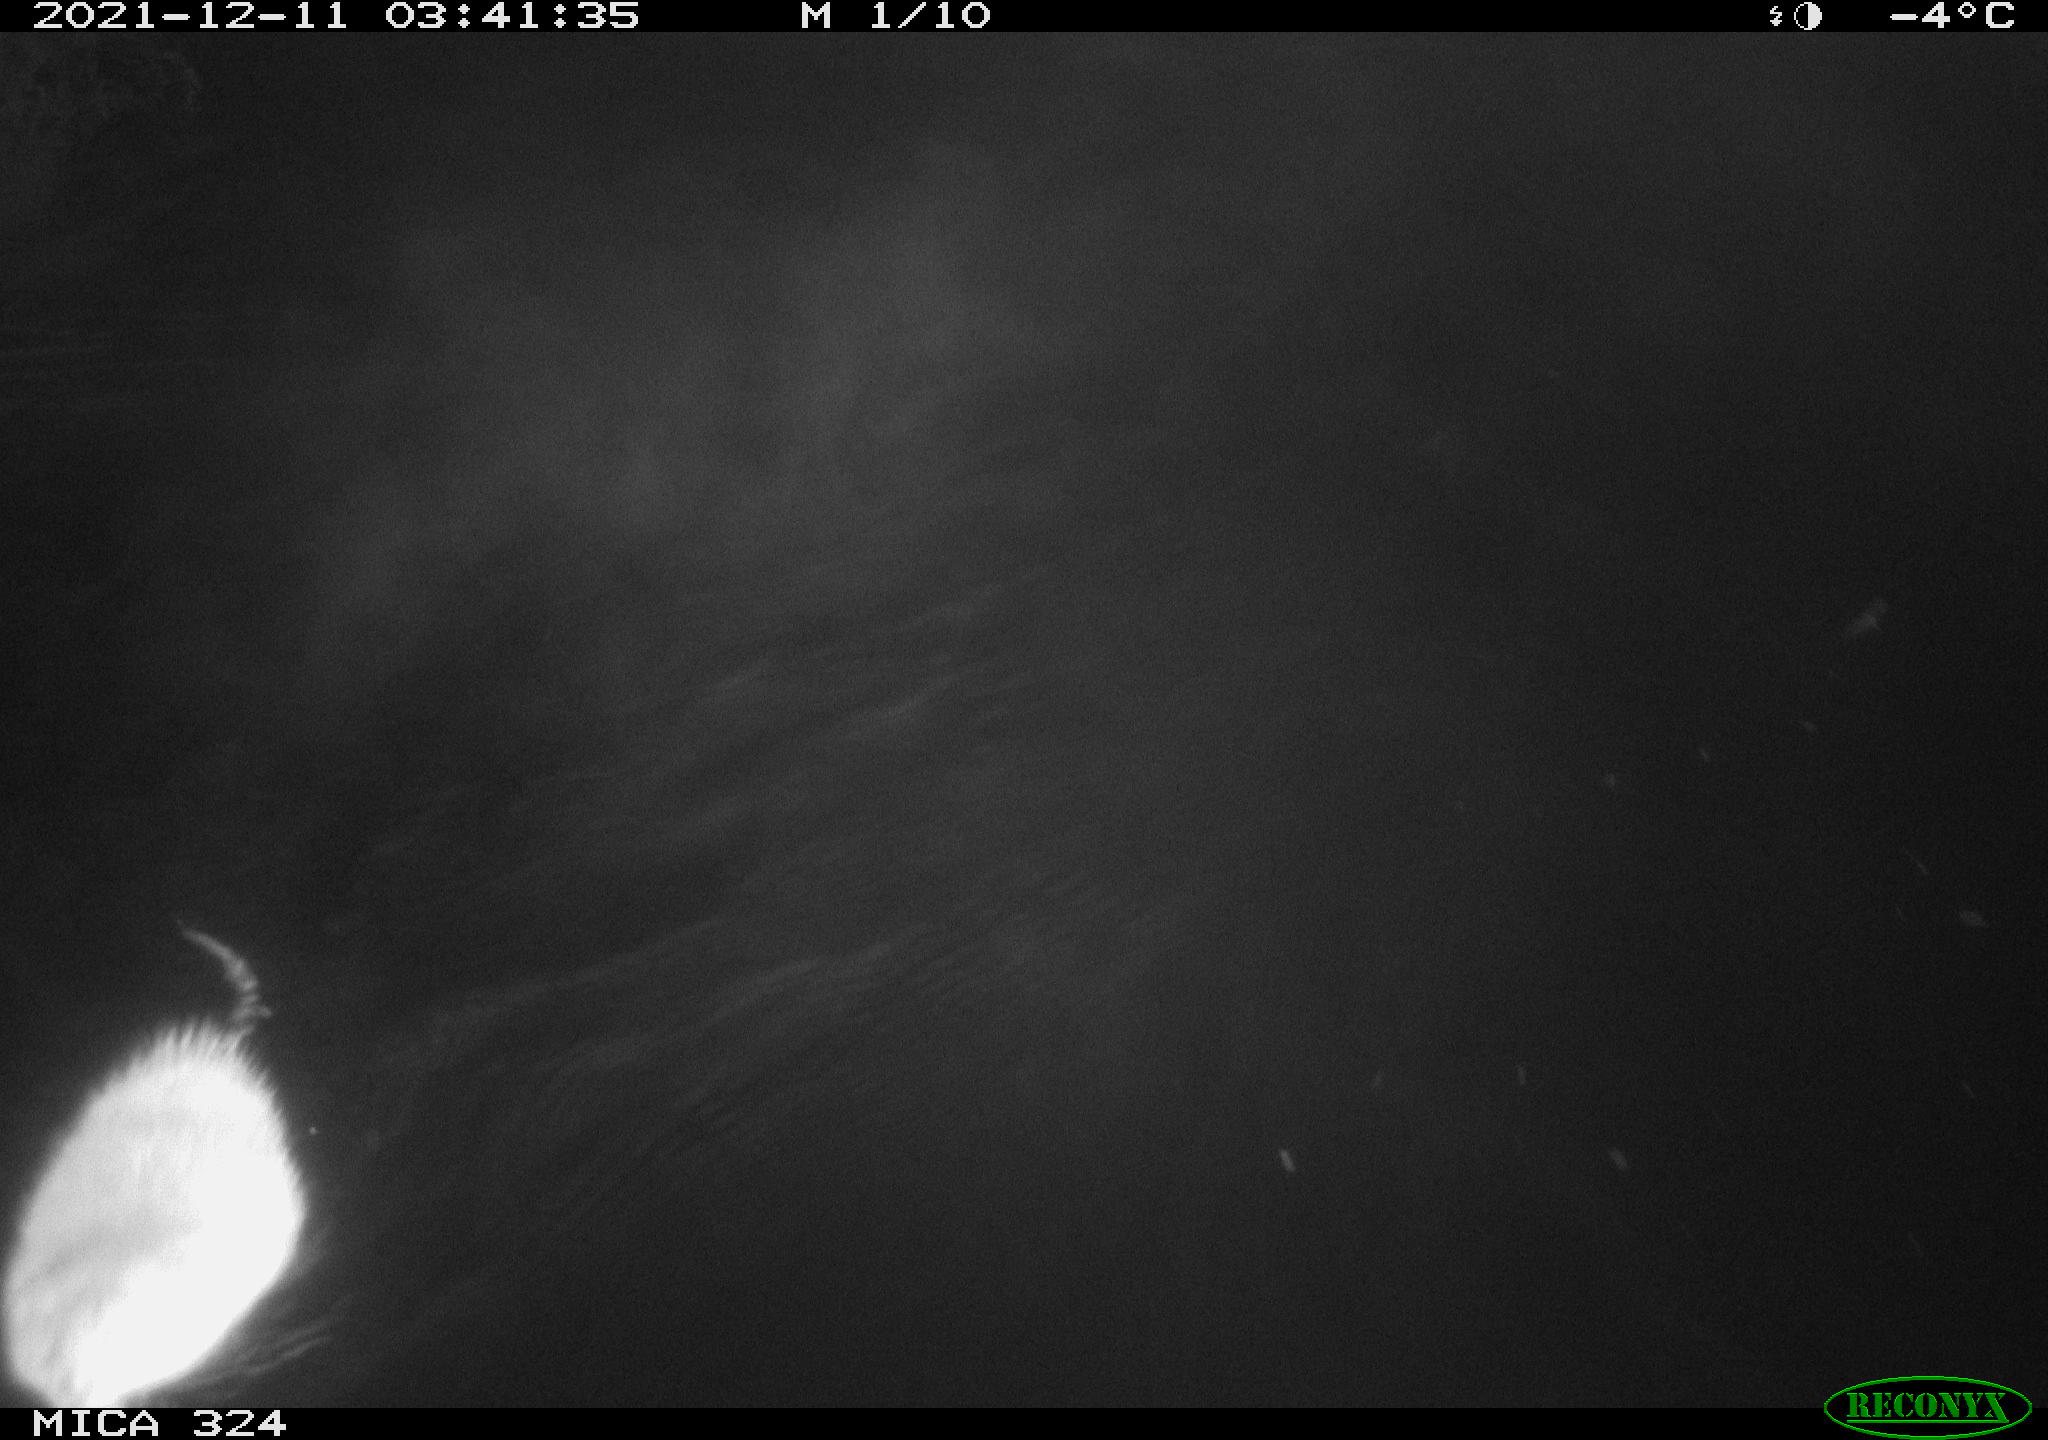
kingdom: Animalia
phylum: Chordata
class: Mammalia
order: Rodentia
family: Cricetidae
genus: Ondatra
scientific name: Ondatra zibethicus
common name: Muskrat
